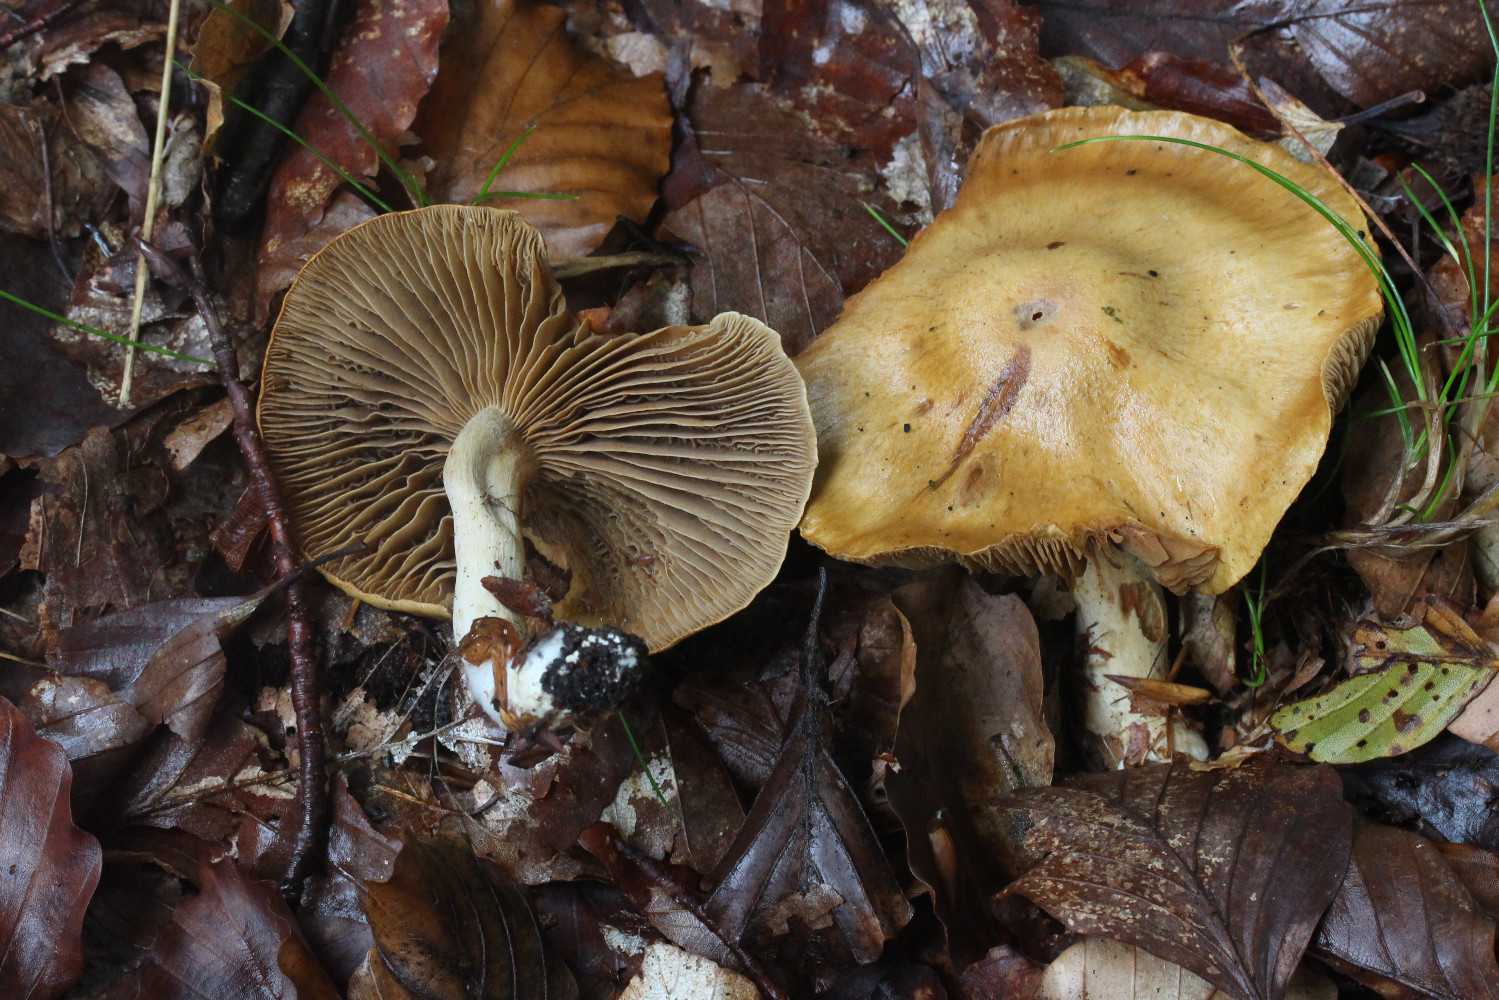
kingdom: Fungi
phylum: Basidiomycota
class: Agaricomycetes
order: Agaricales
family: Cortinariaceae
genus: Cortinarius
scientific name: Cortinarius subtortus
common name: olivengul slørhat
